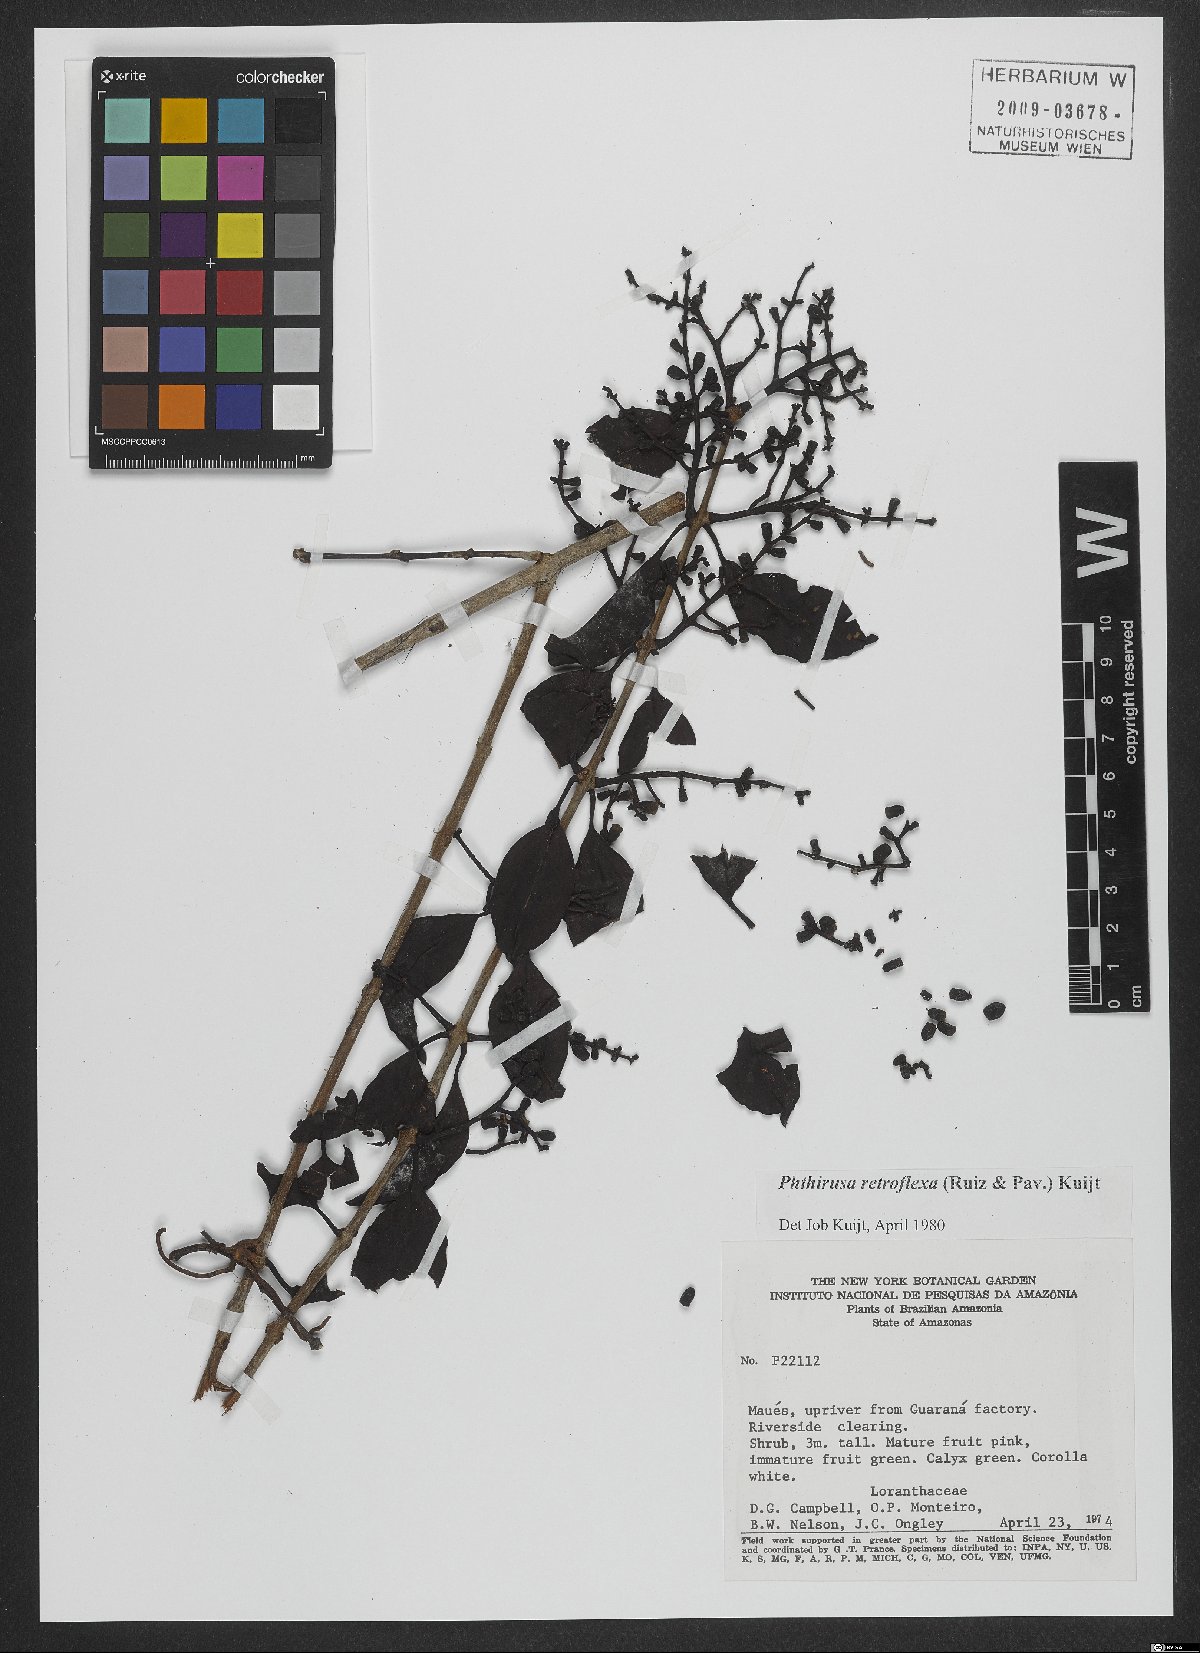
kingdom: Plantae
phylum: Tracheophyta
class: Magnoliopsida
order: Santalales
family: Loranthaceae
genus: Passovia
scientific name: Passovia pedunculata
